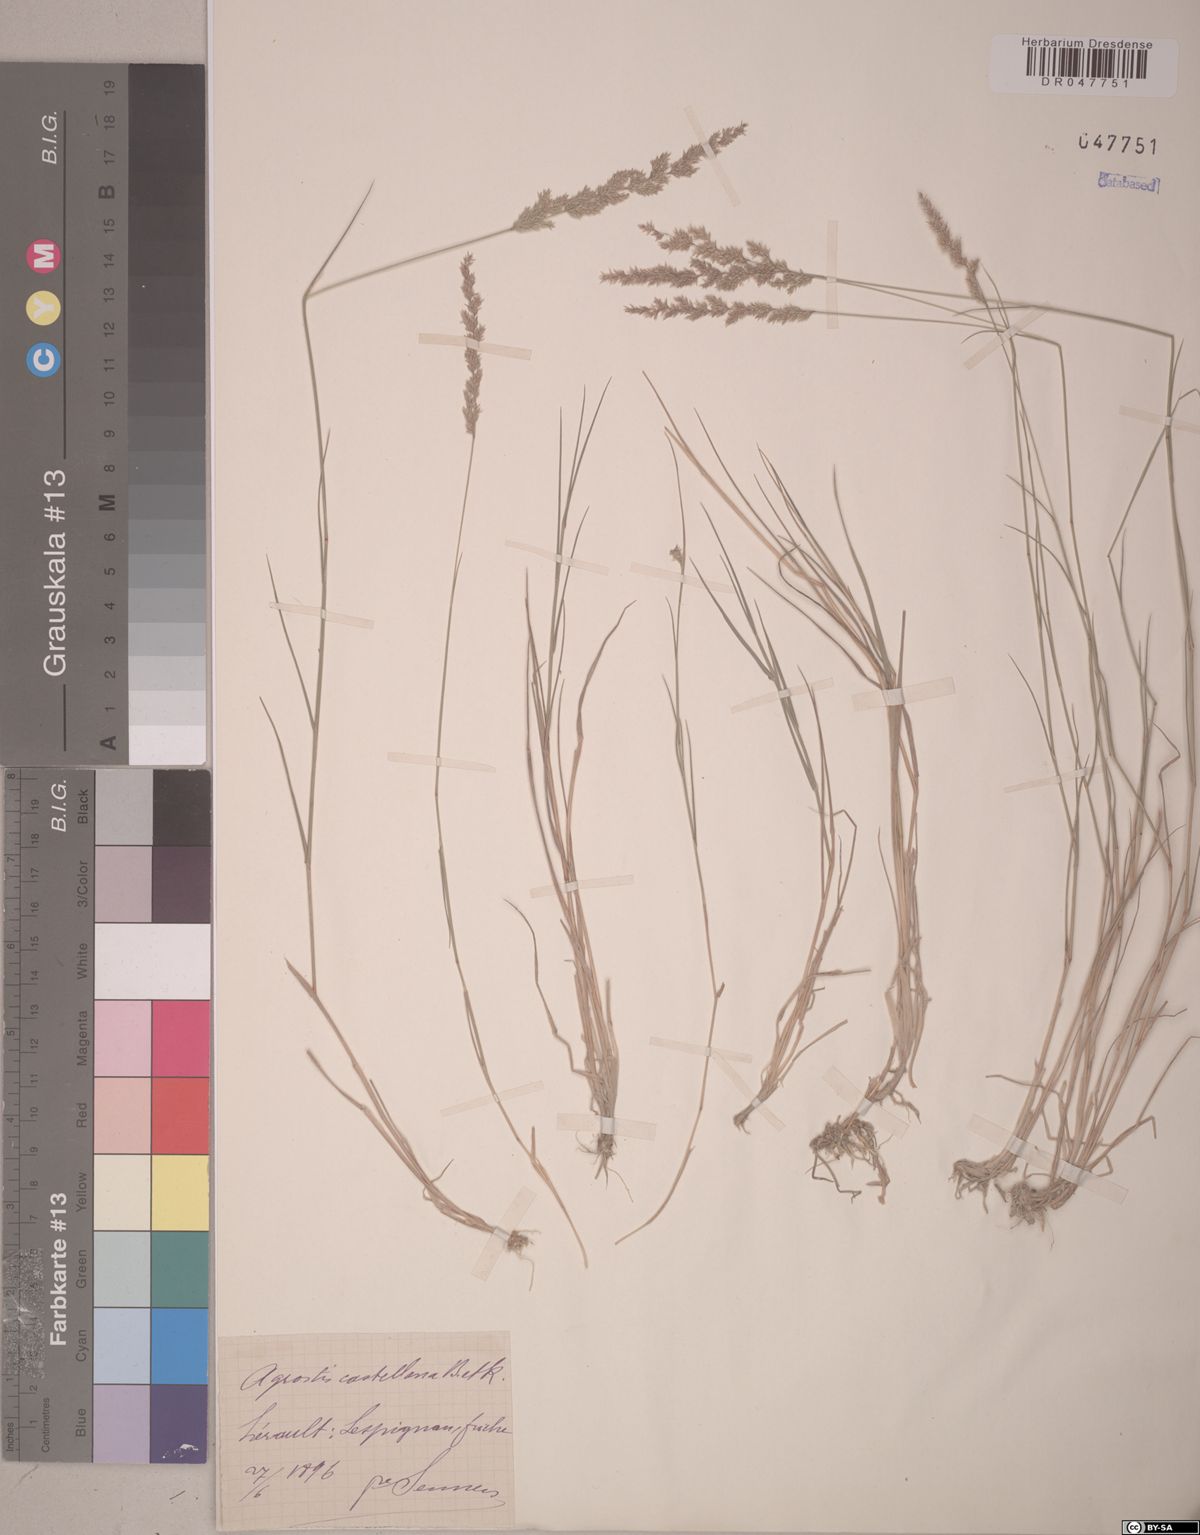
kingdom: Plantae
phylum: Tracheophyta
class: Liliopsida
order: Poales
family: Poaceae
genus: Agrostis
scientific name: Agrostis castellana
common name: Highland bent
